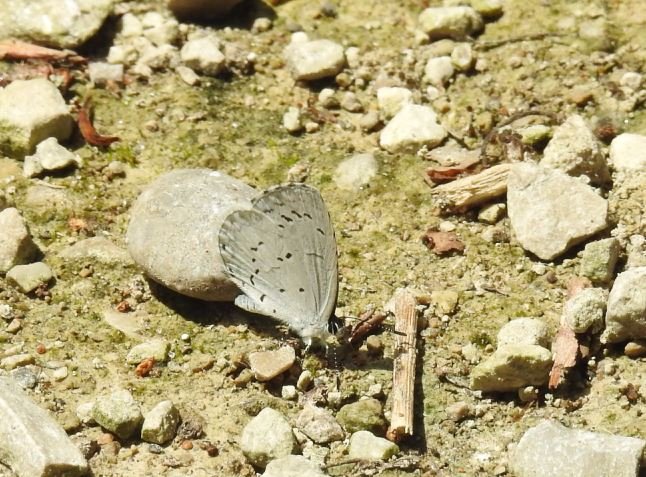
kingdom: Animalia
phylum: Arthropoda
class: Insecta
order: Lepidoptera
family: Lycaenidae
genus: Celastrina
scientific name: Celastrina
